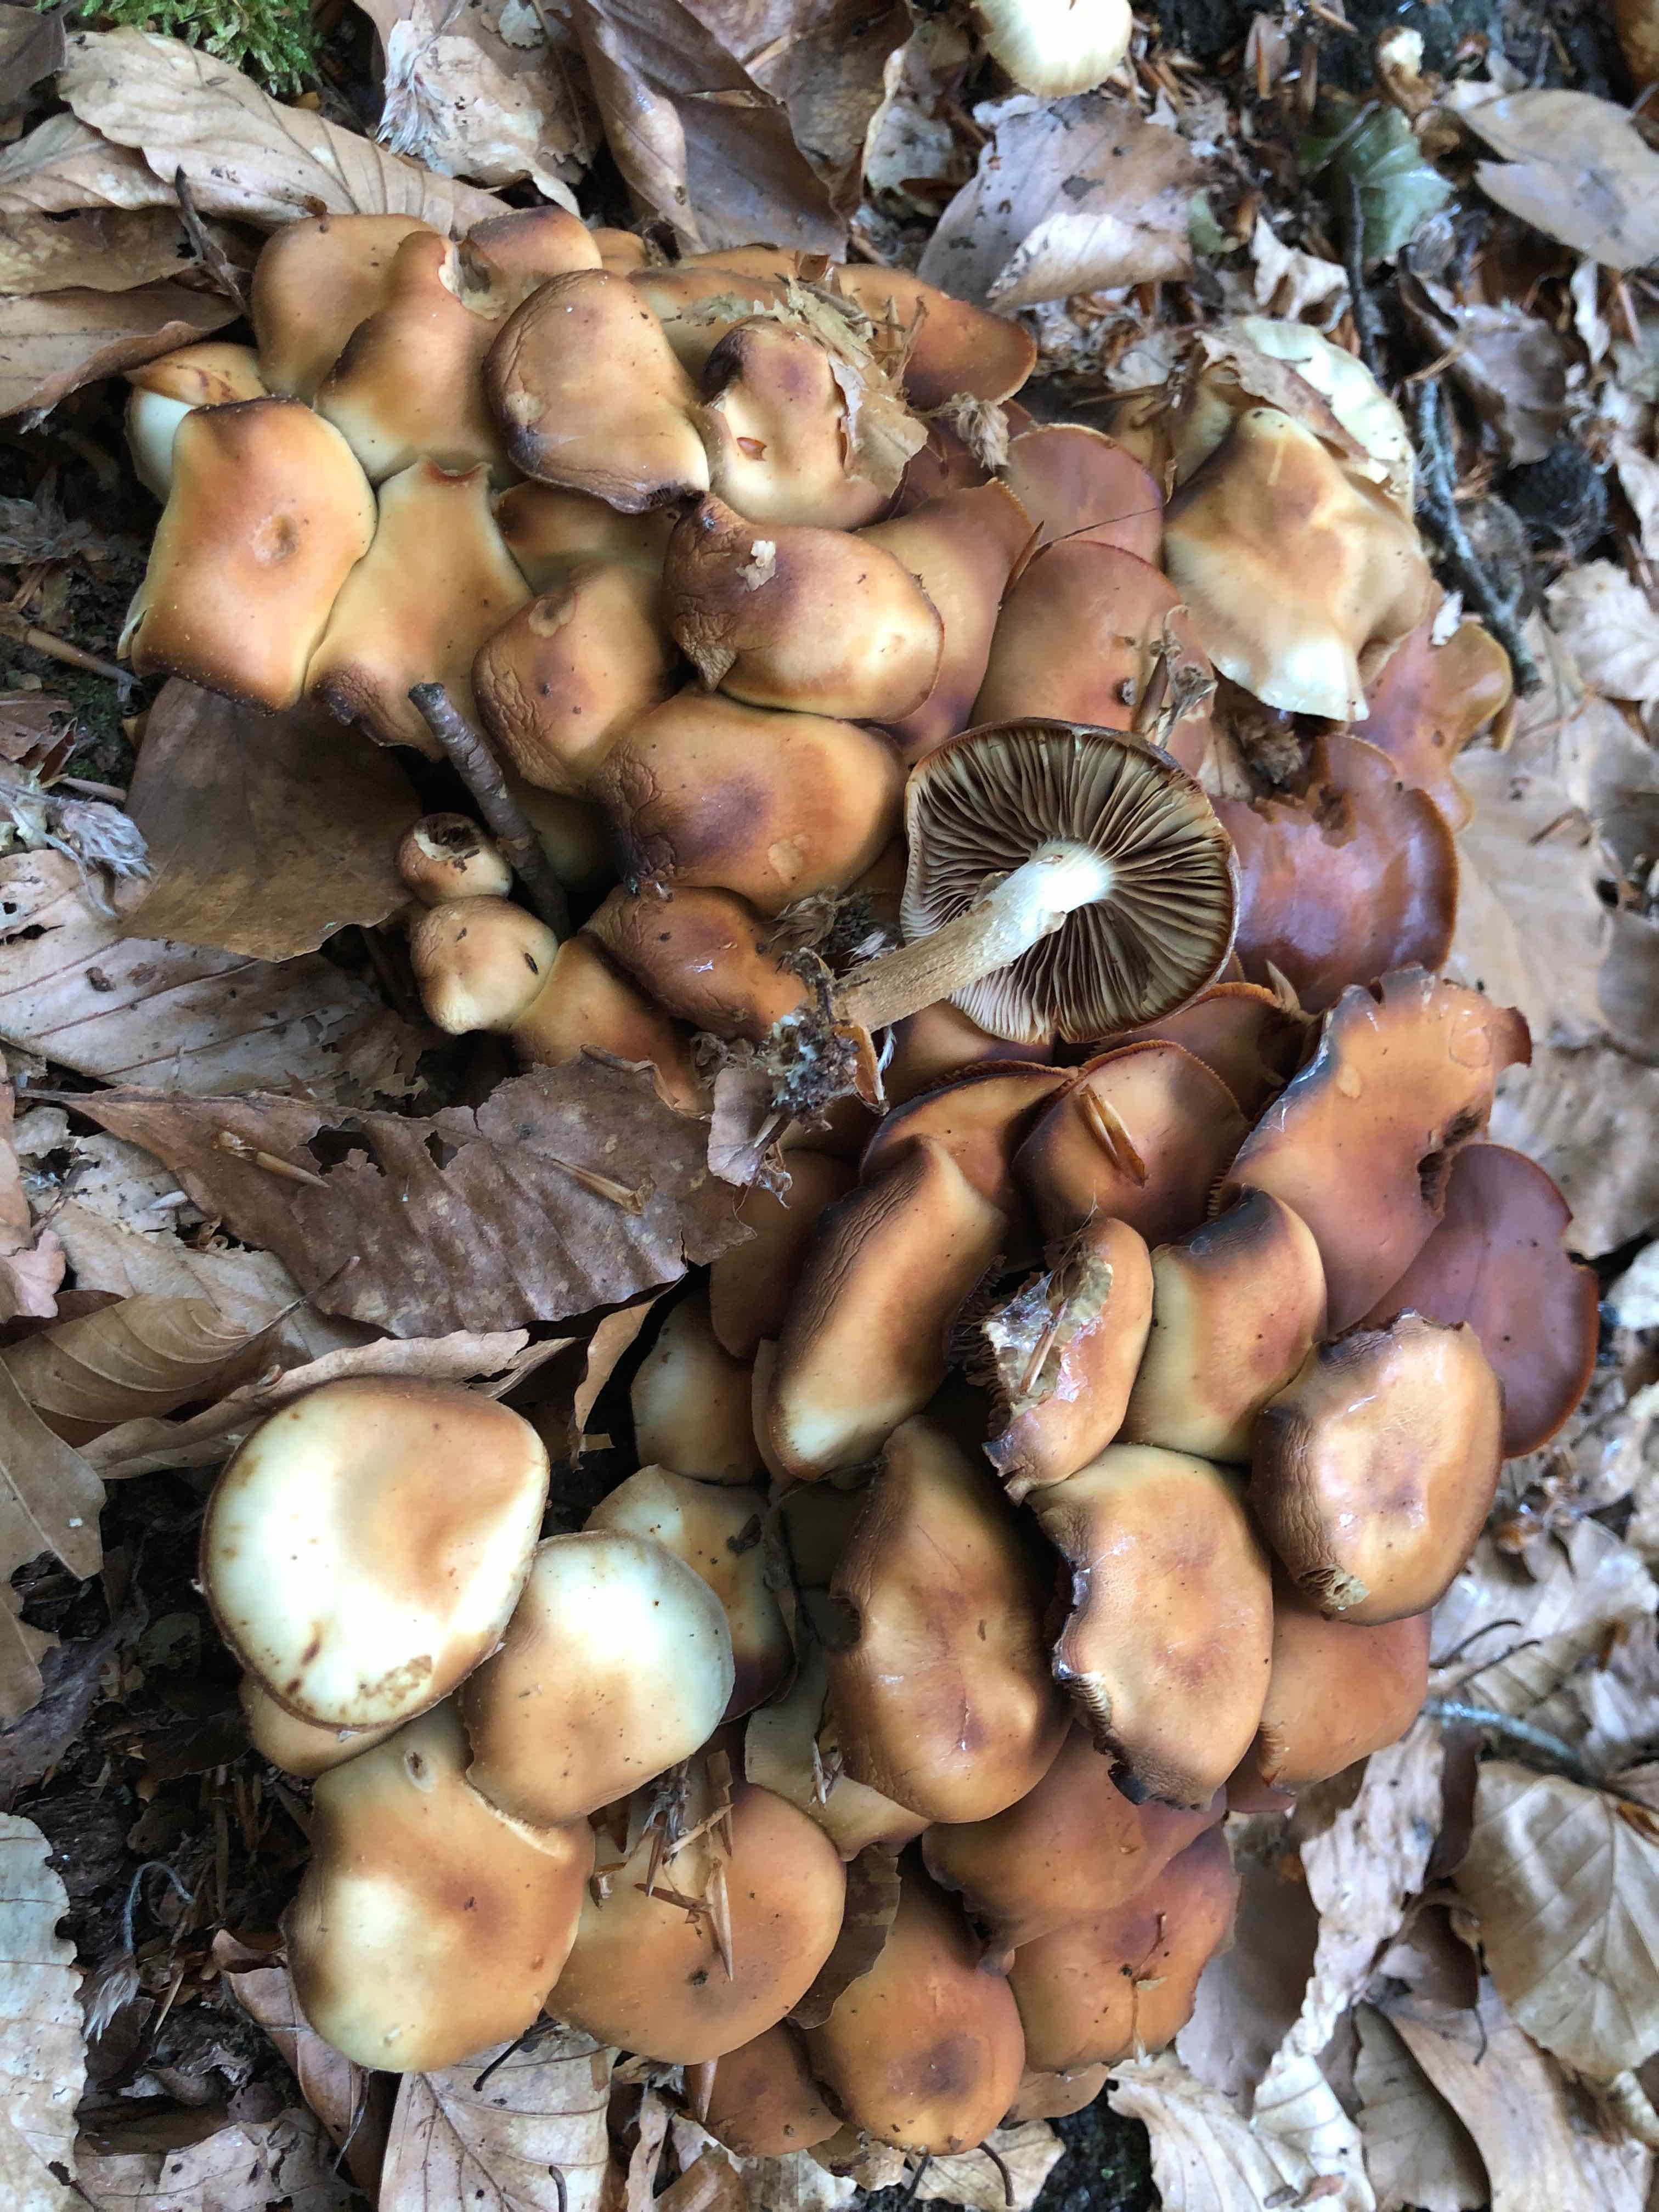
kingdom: Fungi
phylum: Basidiomycota
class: Agaricomycetes
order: Agaricales
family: Strophariaceae
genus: Kuehneromyces
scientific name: Kuehneromyces mutabilis
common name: foranderlig skælhat
